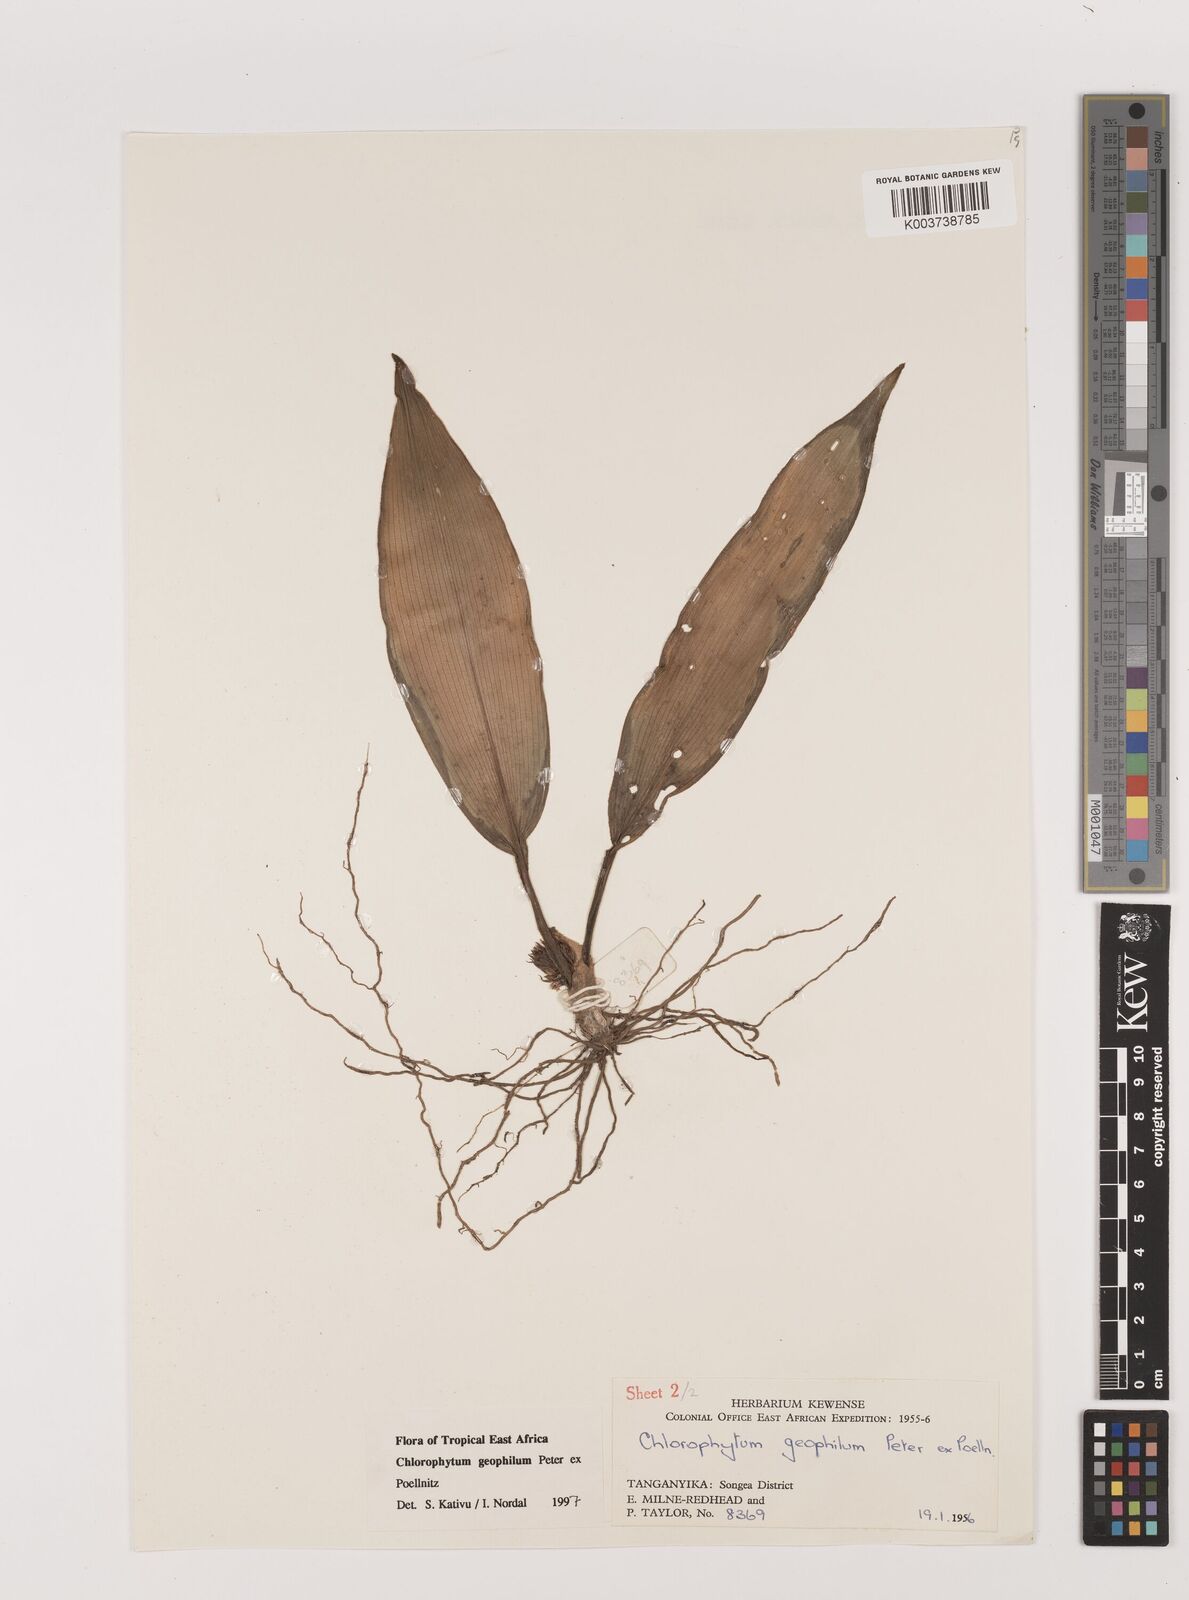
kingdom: Plantae
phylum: Tracheophyta
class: Liliopsida
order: Asparagales
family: Asparagaceae
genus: Chlorophytum
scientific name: Chlorophytum geophilum
